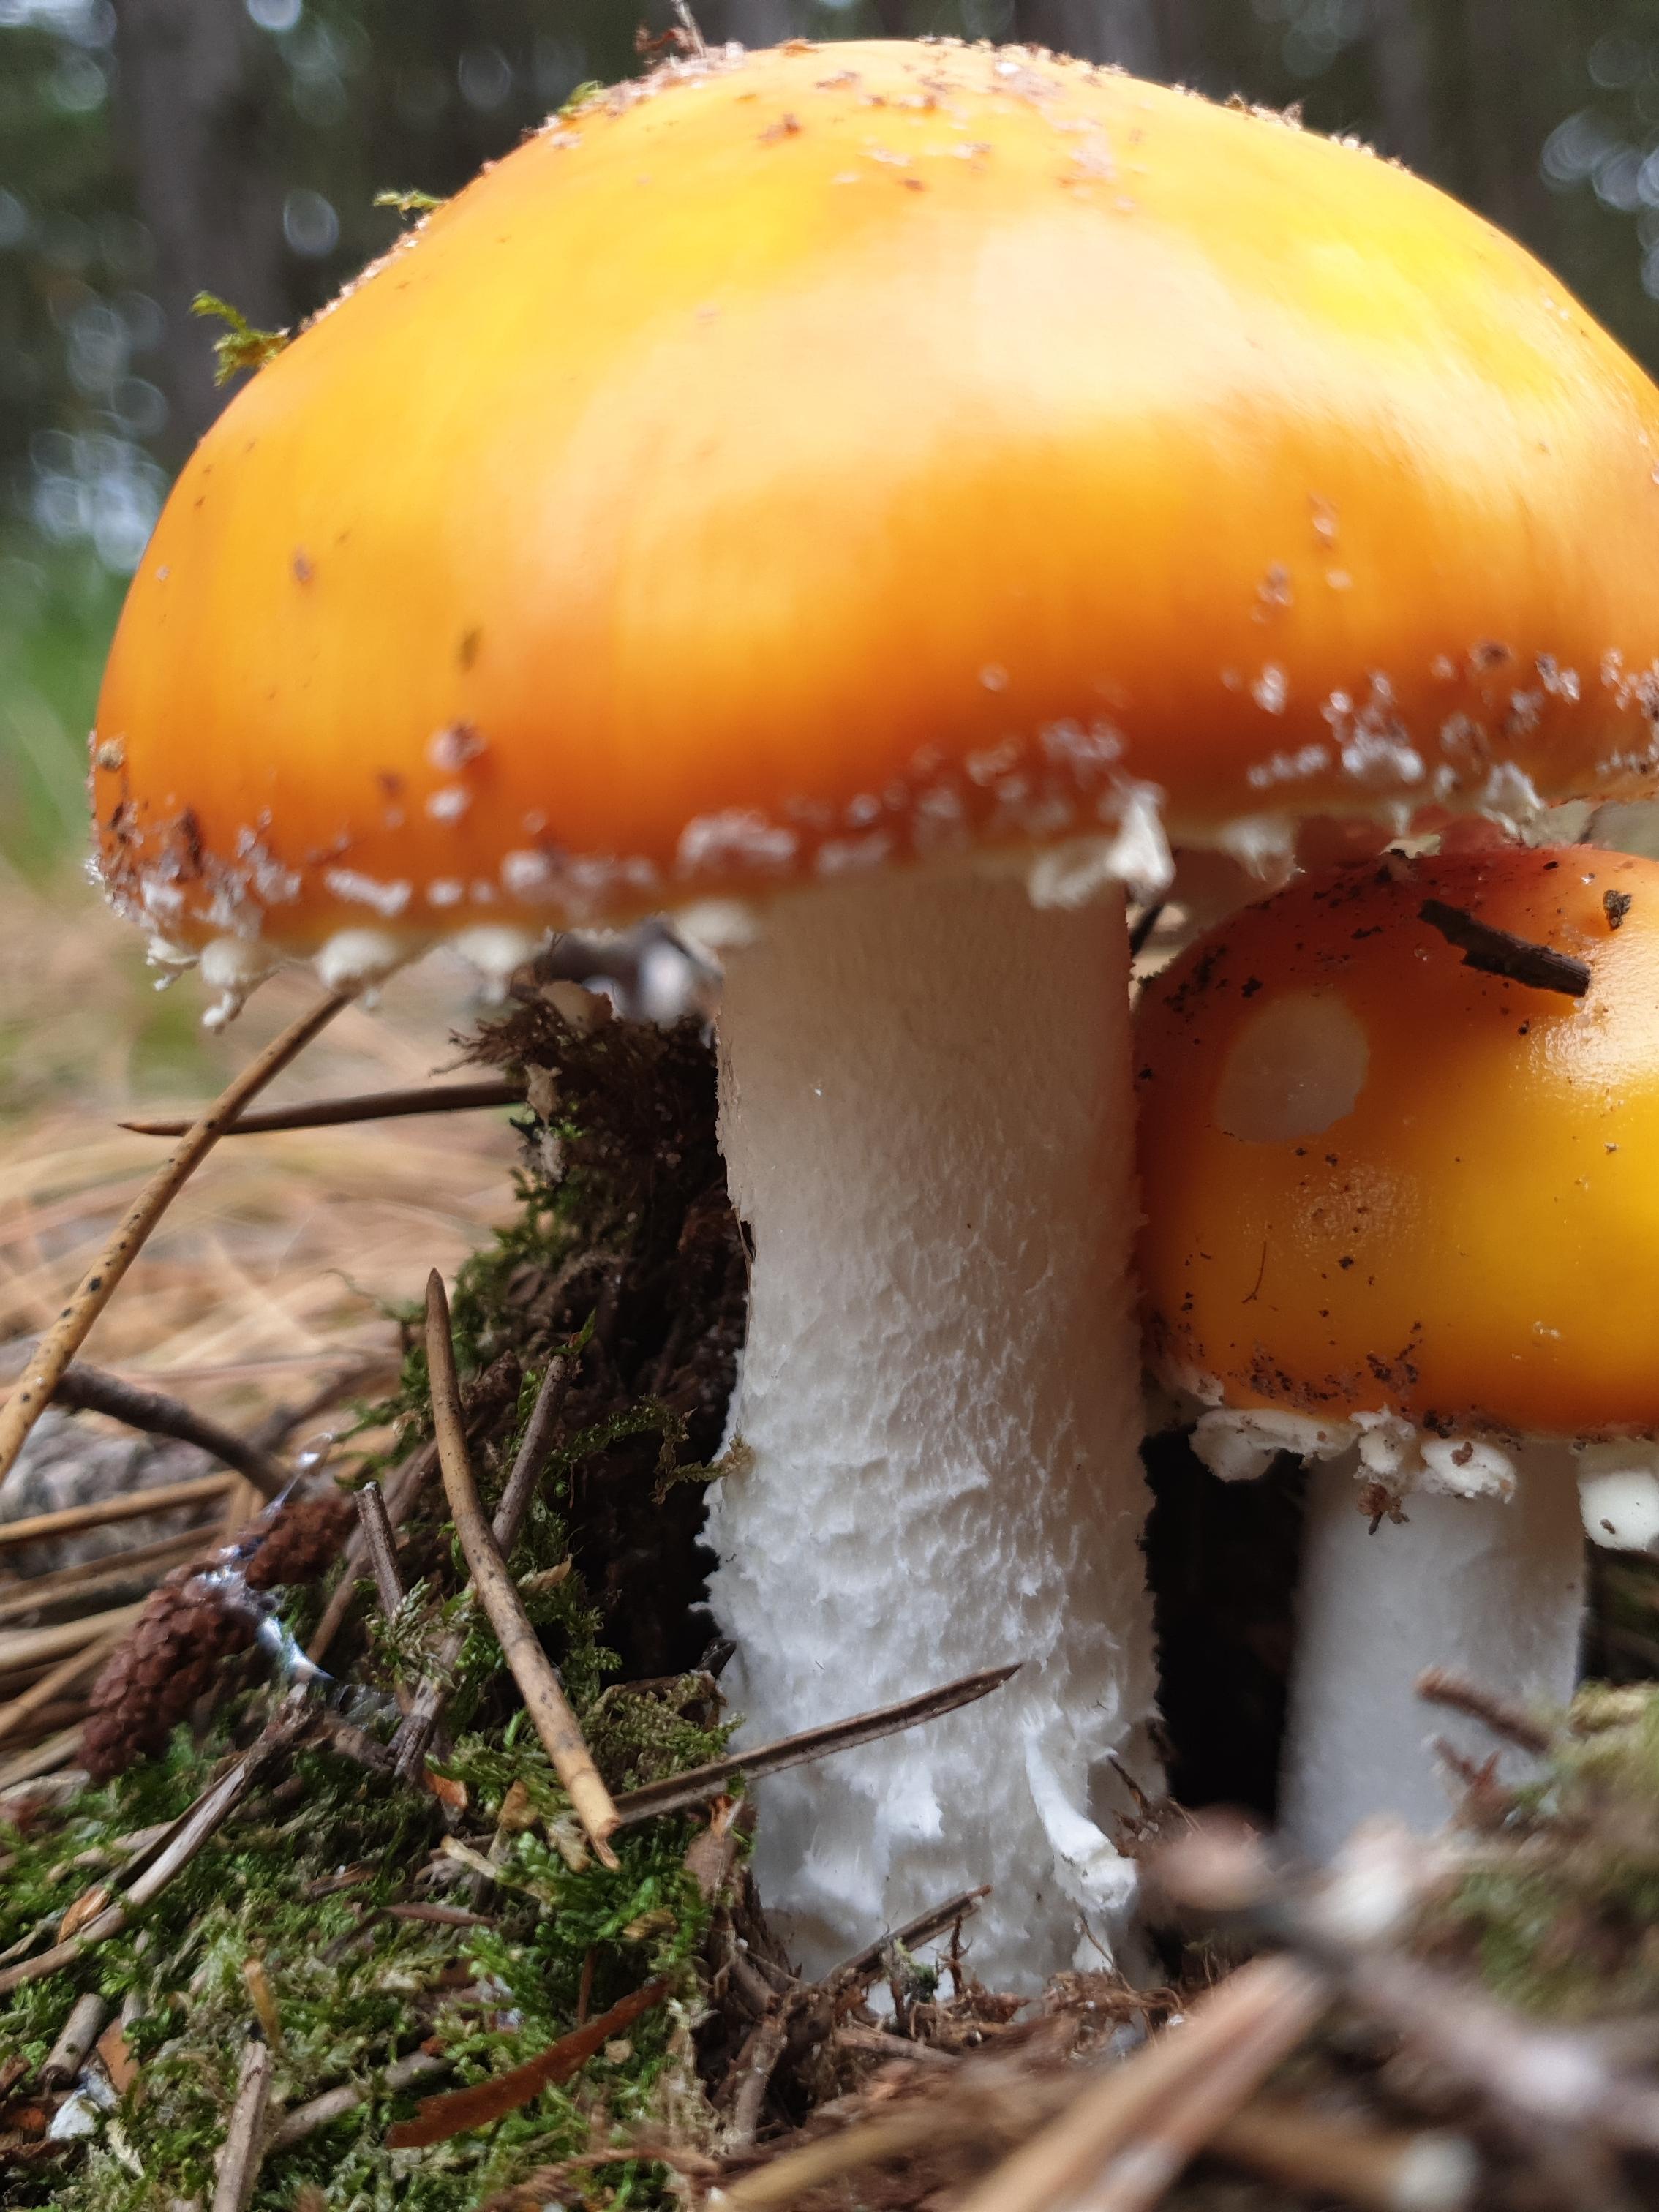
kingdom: Fungi
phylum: Basidiomycota
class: Agaricomycetes
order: Agaricales
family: Amanitaceae
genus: Amanita
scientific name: Amanita muscaria
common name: rød fluesvamp
